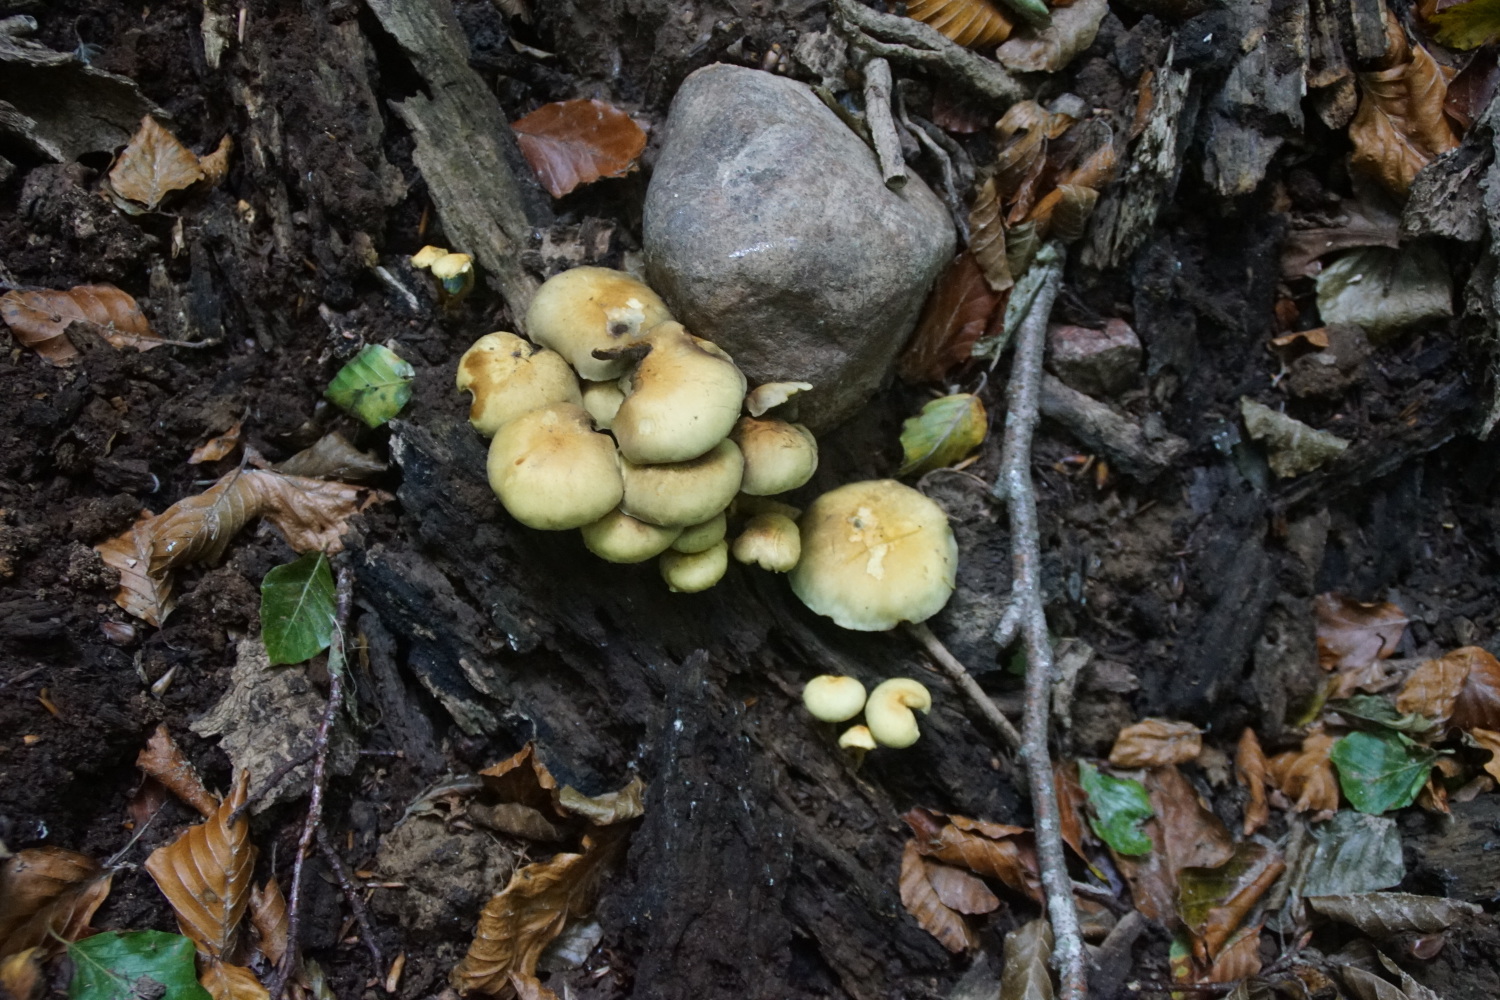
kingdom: Fungi
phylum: Basidiomycota
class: Agaricomycetes
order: Agaricales
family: Strophariaceae
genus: Hypholoma
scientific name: Hypholoma fasciculare
